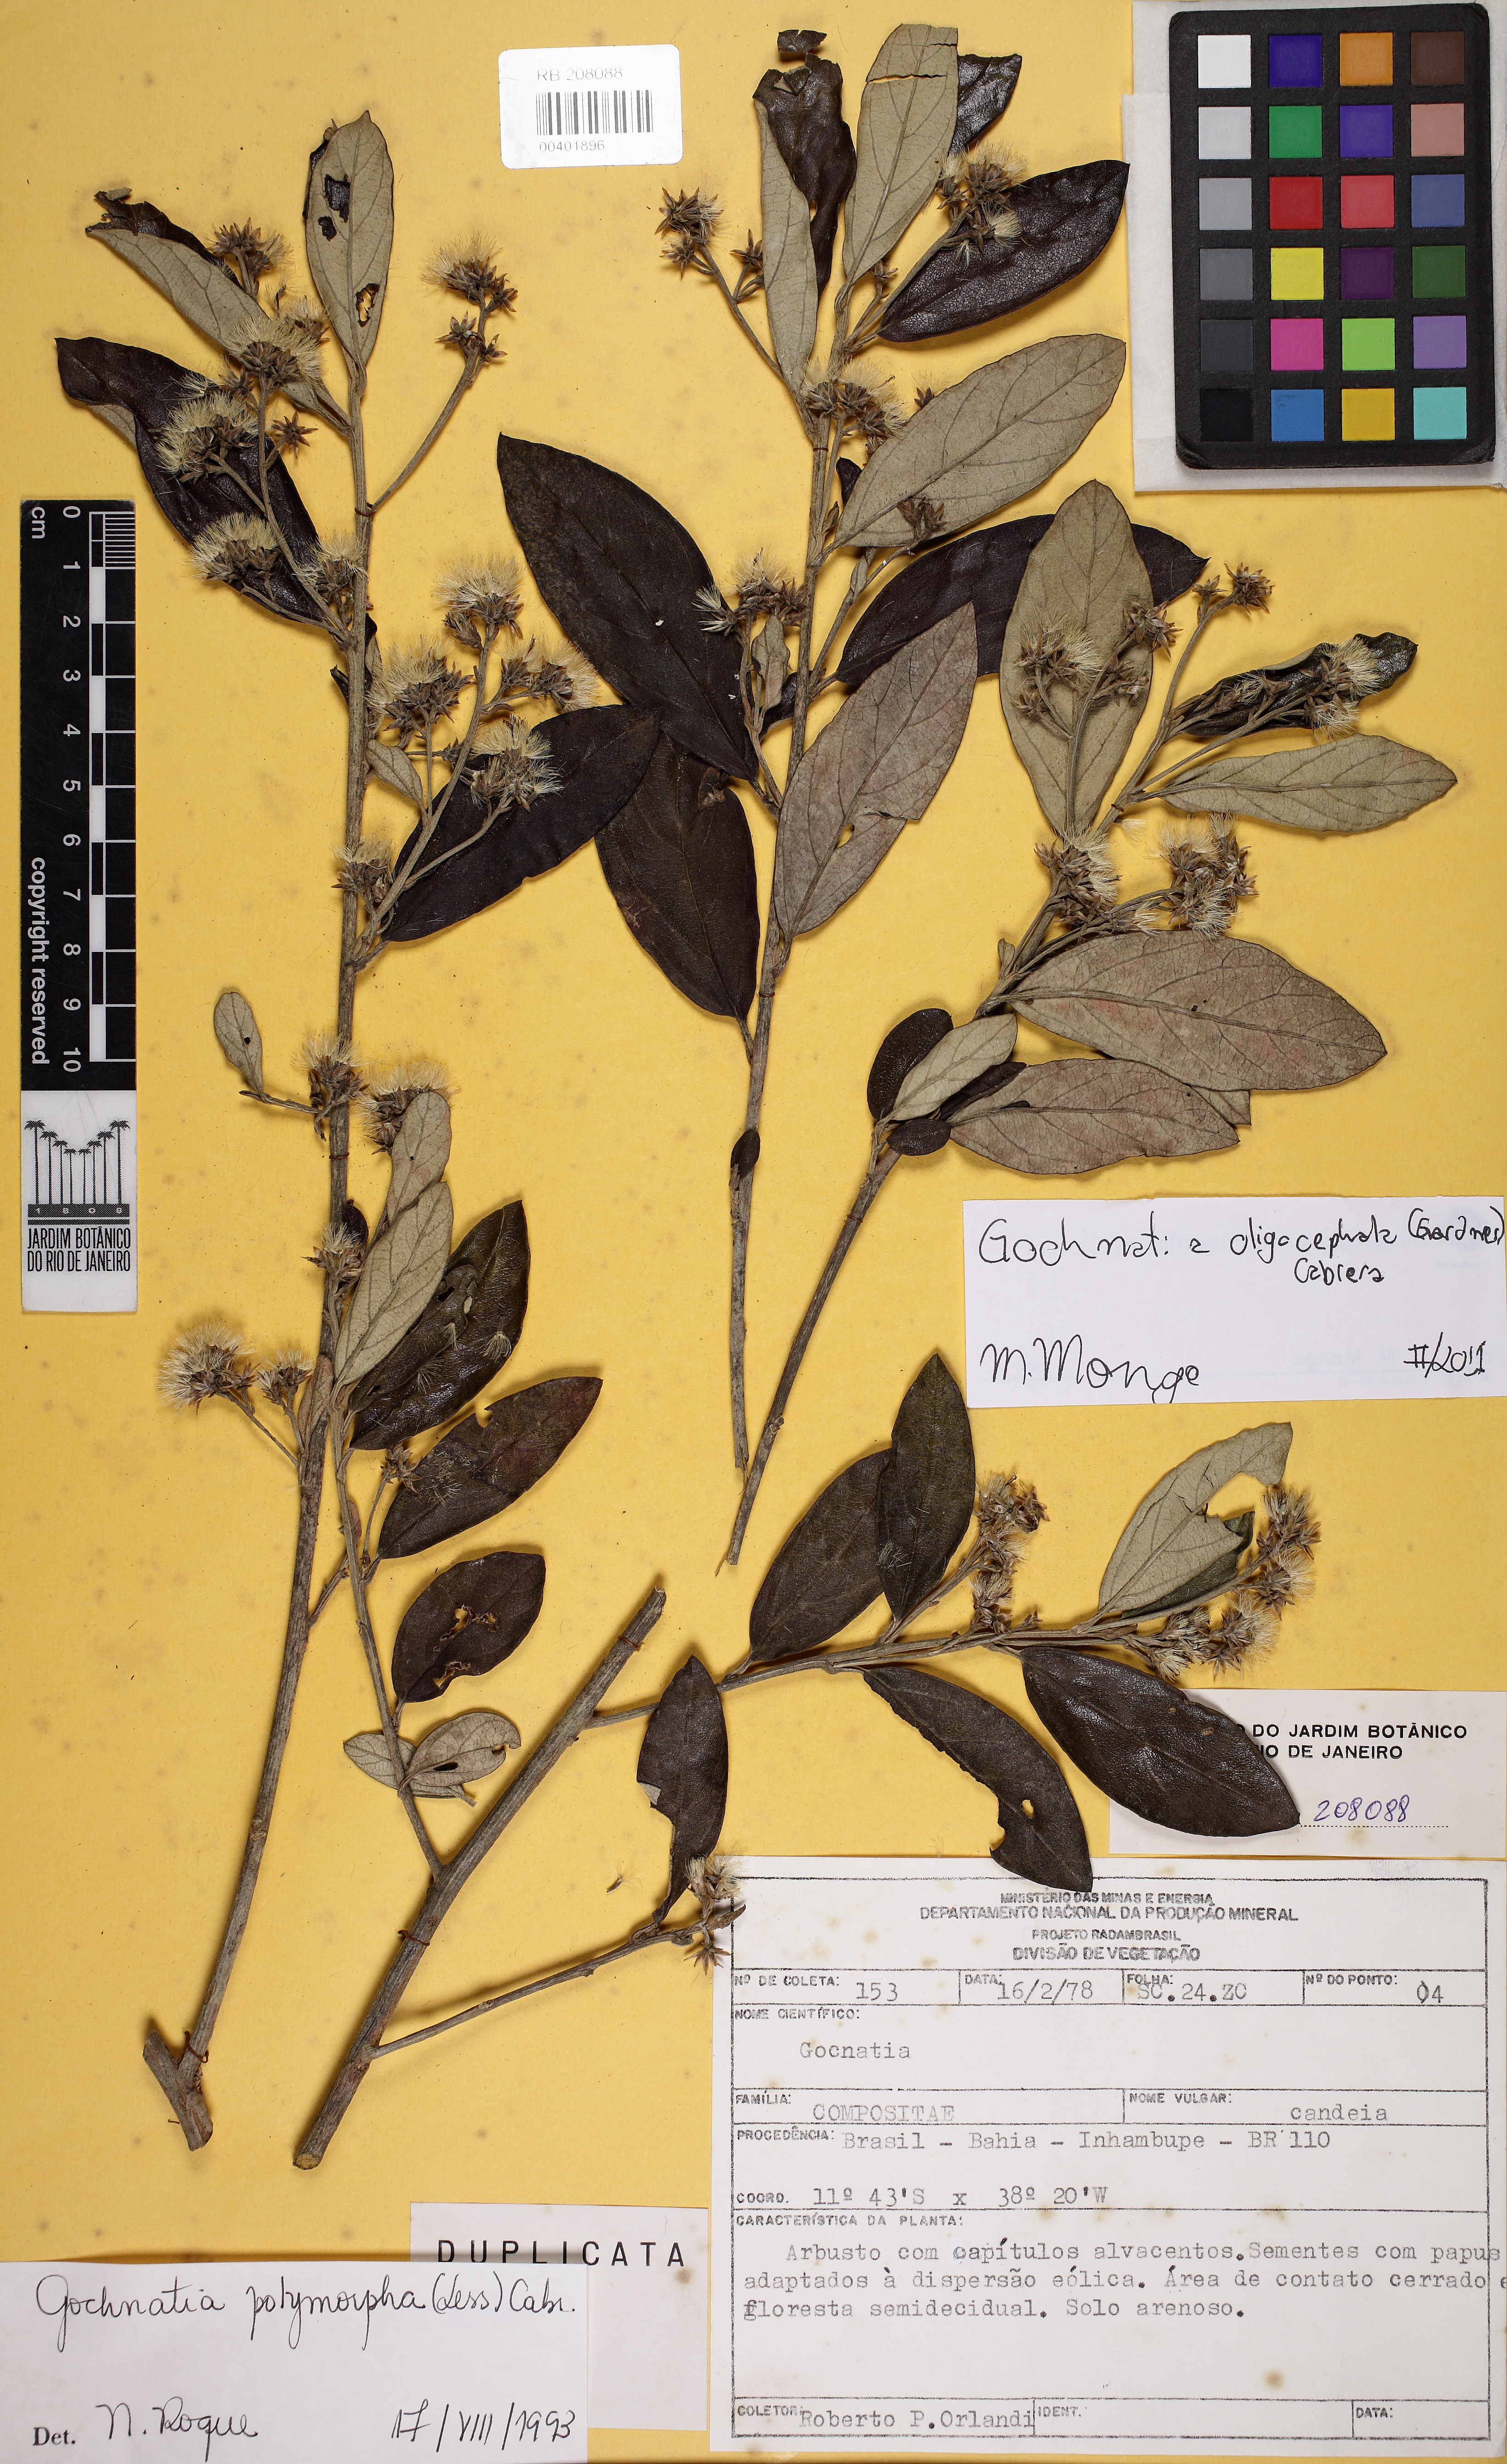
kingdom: Plantae
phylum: Tracheophyta
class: Magnoliopsida
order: Asterales
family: Asteraceae
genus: Moquiniastrum
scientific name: Moquiniastrum oligocephalum
